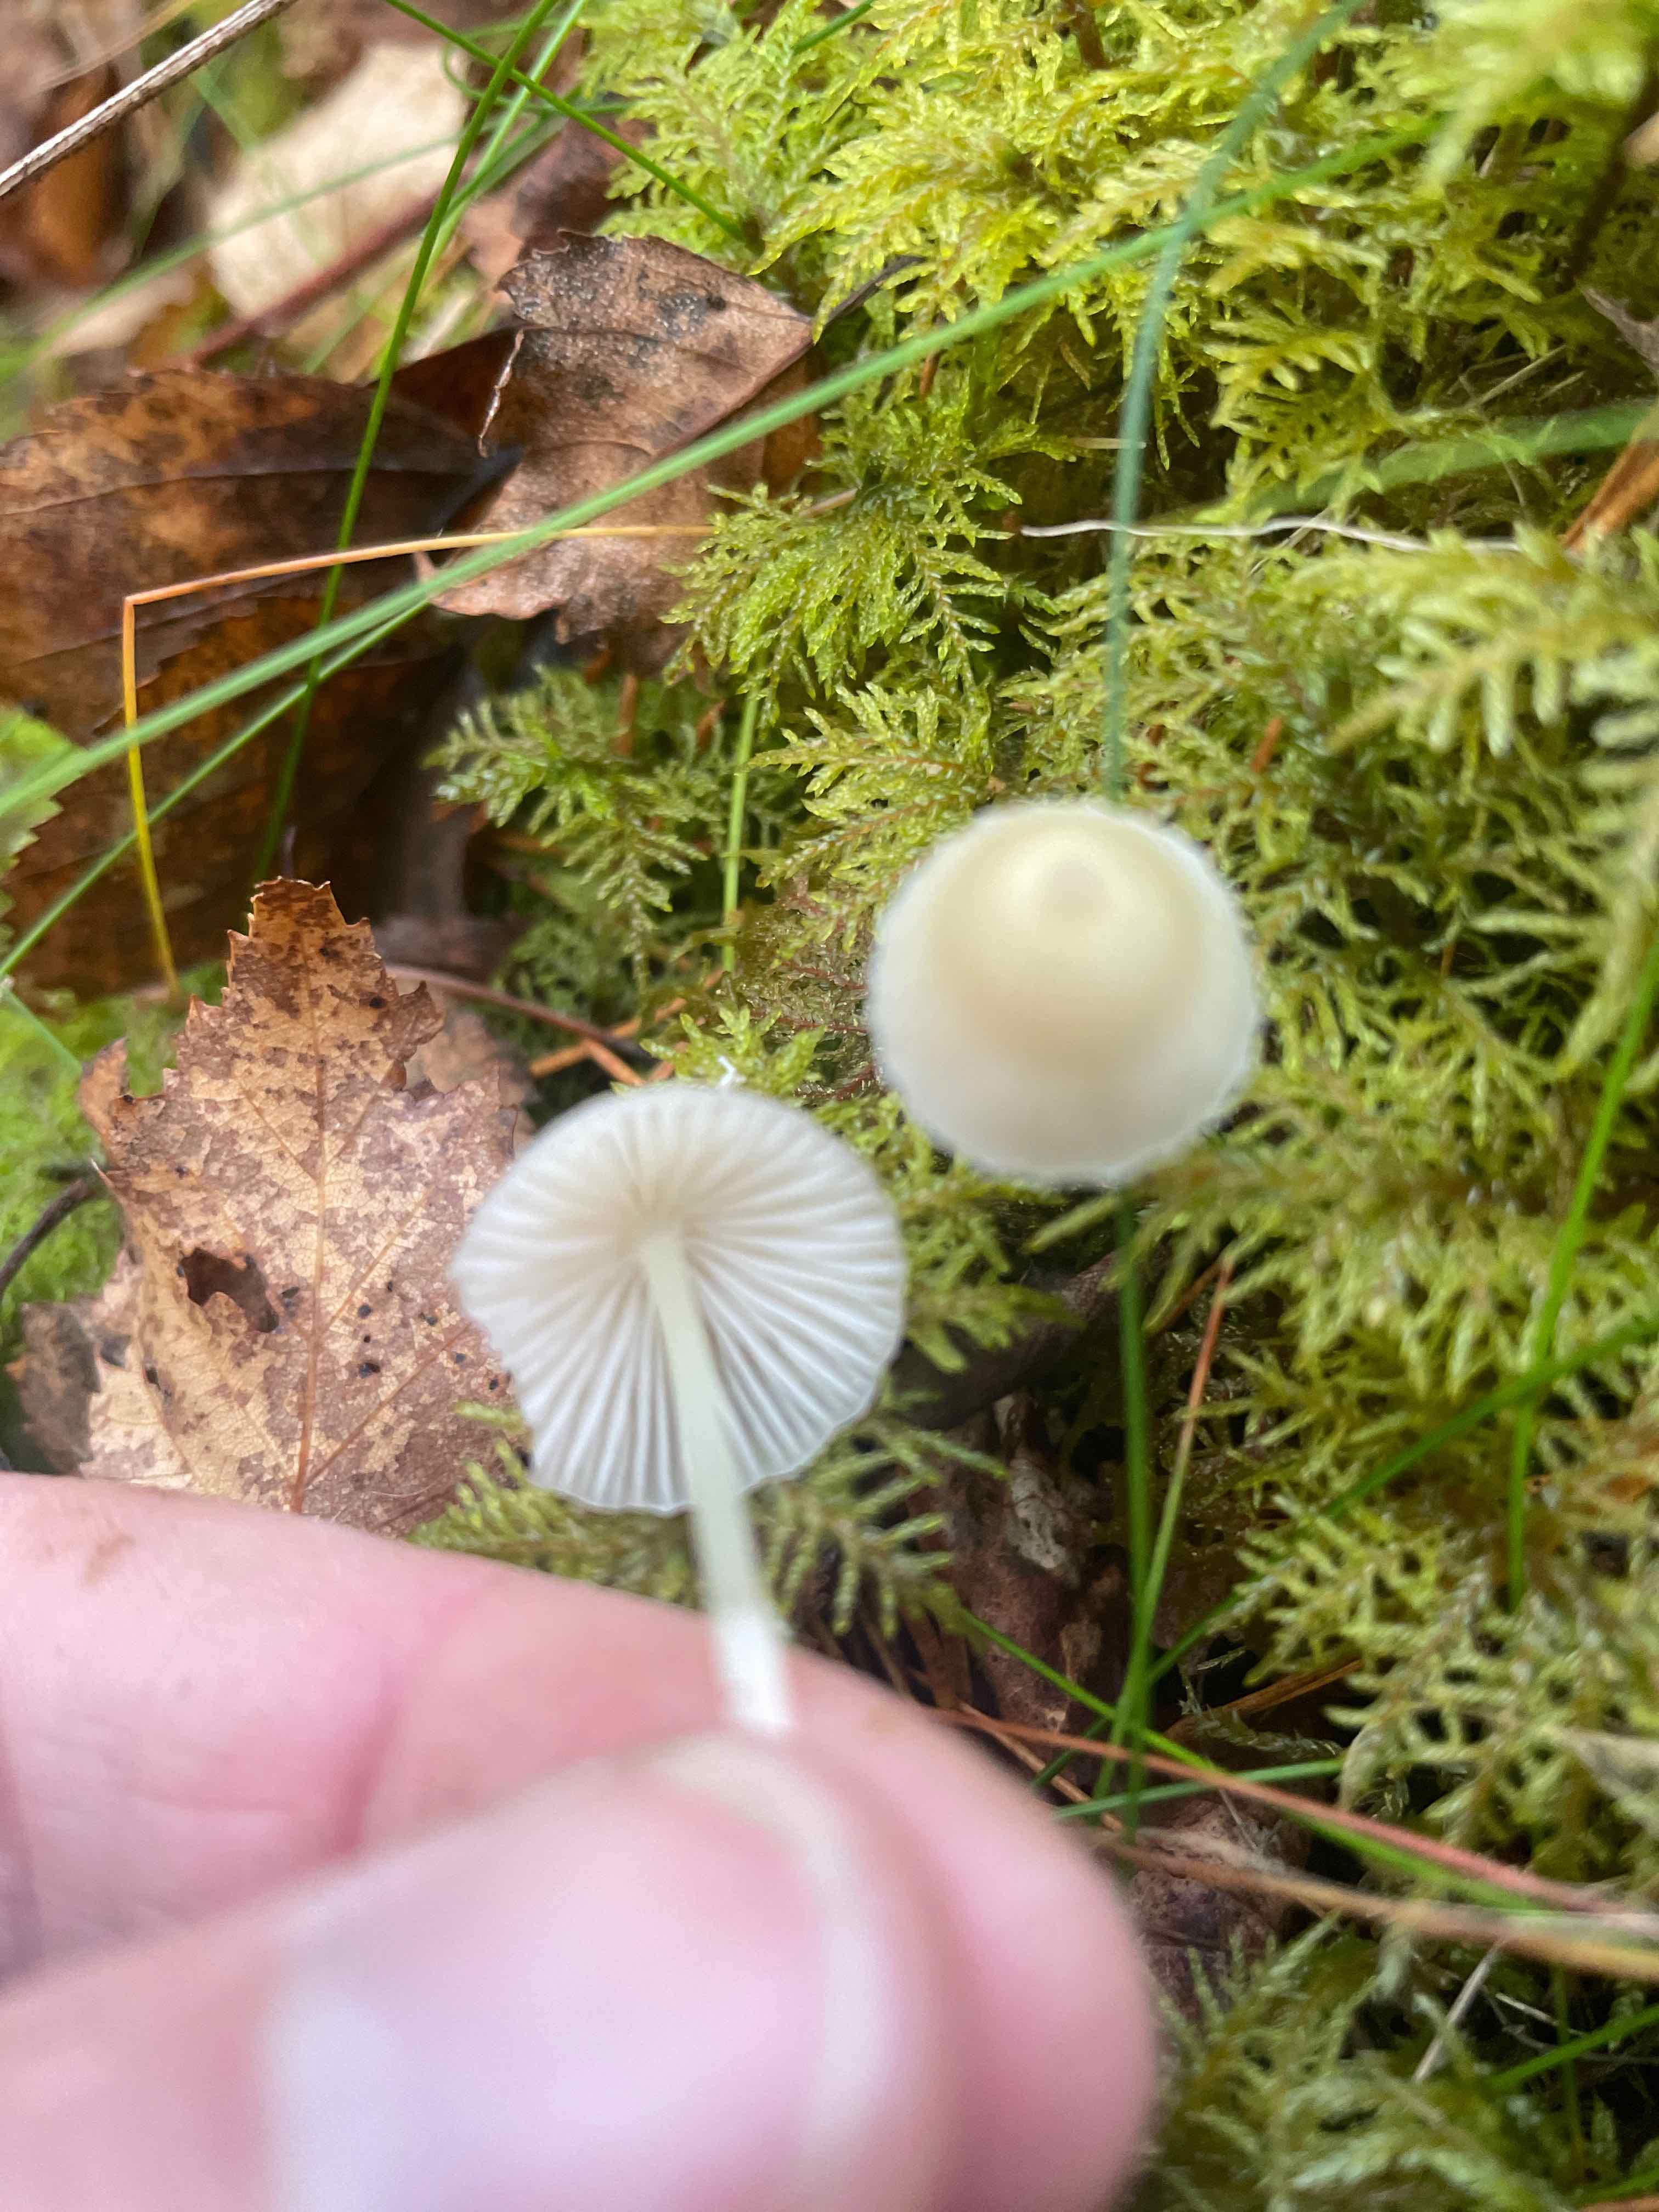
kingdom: Fungi
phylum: Basidiomycota
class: Agaricomycetes
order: Agaricales
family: Mycenaceae
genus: Mycena
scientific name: Mycena
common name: huesvamp
